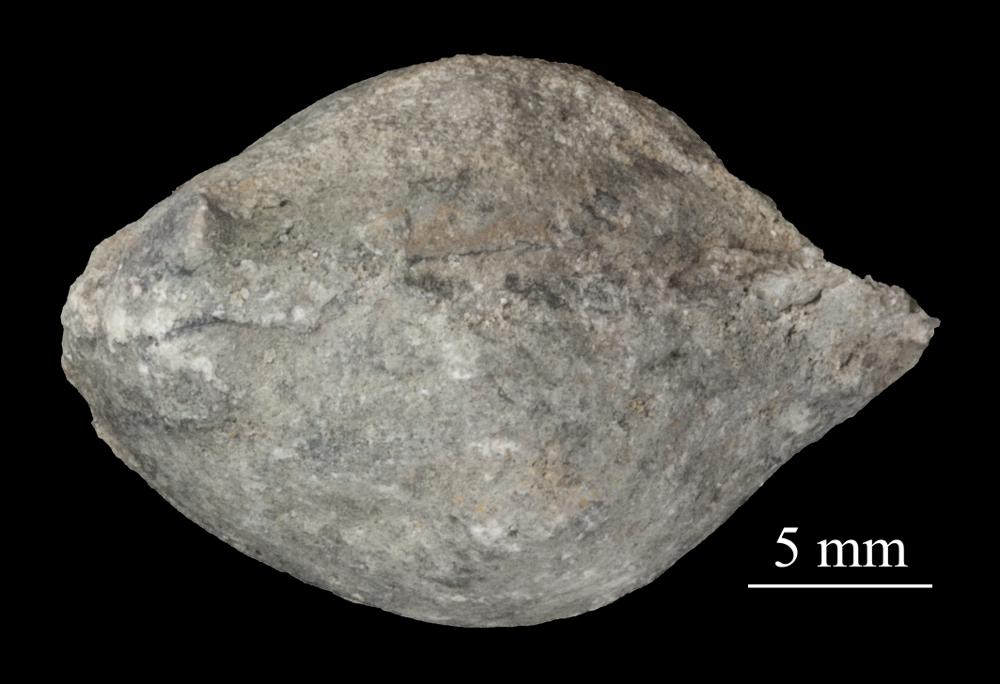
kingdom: Animalia
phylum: Mollusca
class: Bivalvia
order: Cyrtodontida
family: Cyrtodontidae
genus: Cyrtodonta
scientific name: Cyrtodonta
